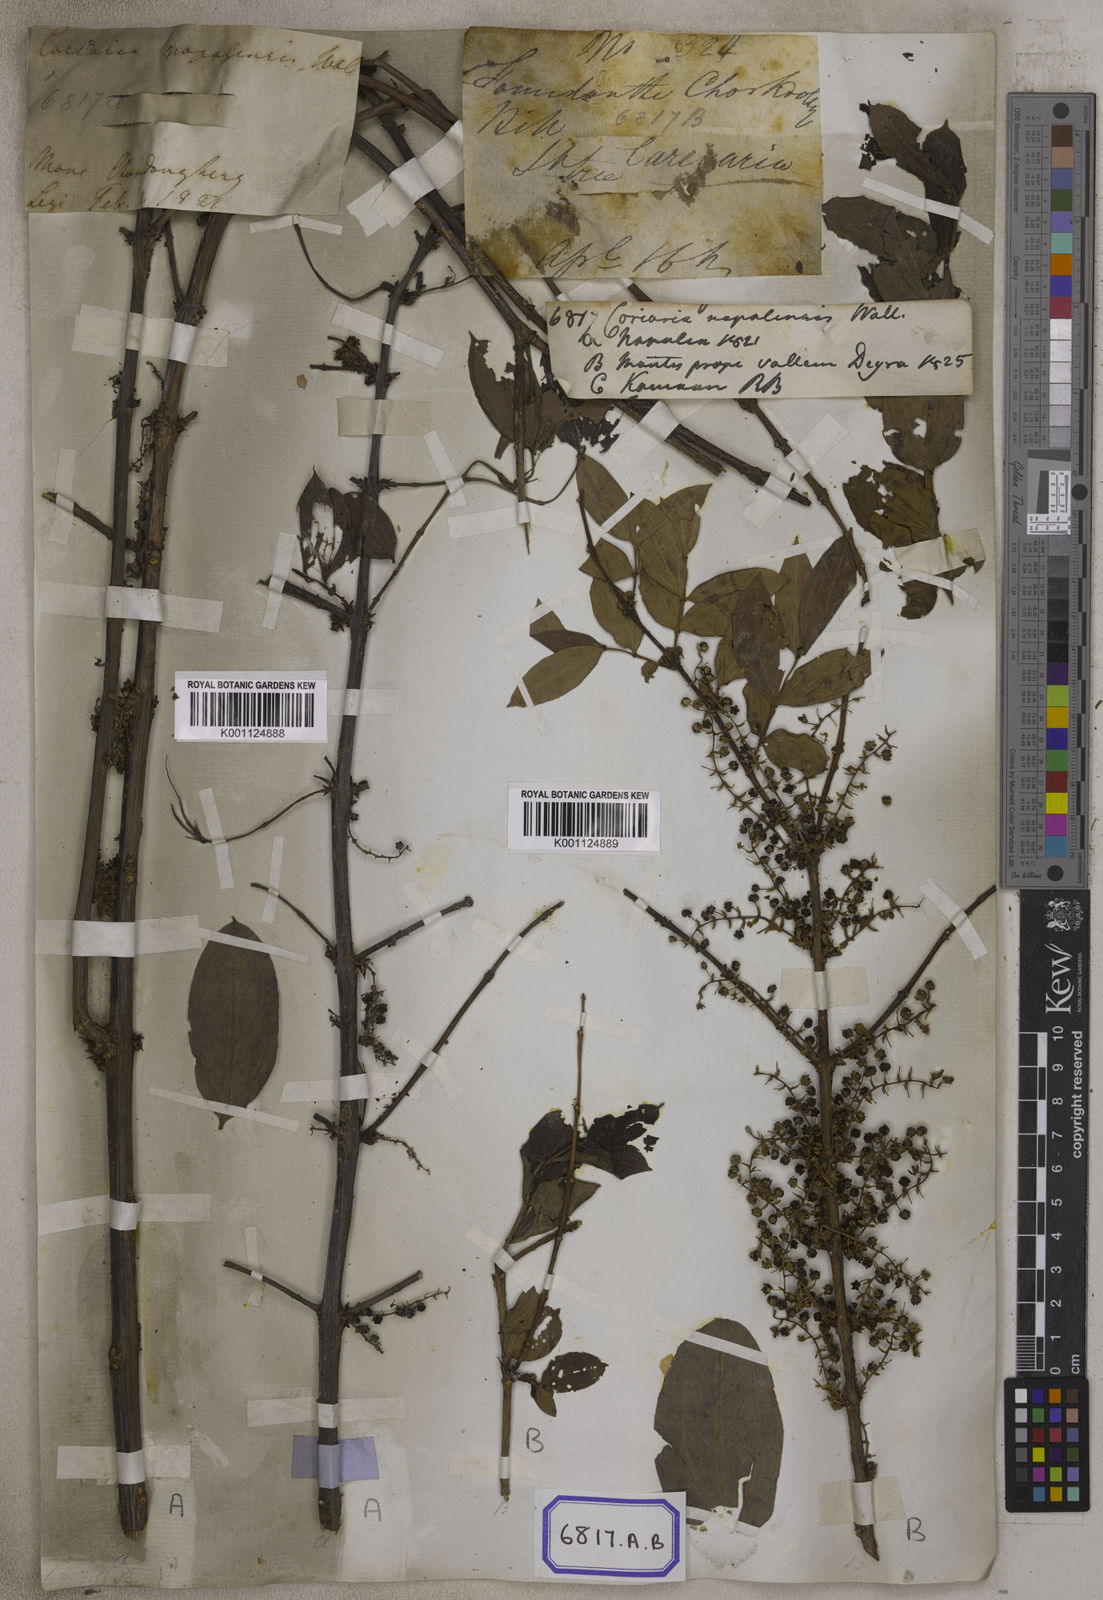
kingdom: Plantae
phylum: Tracheophyta
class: Magnoliopsida
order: Cucurbitales
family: Coriariaceae
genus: Coriaria
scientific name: Coriaria
